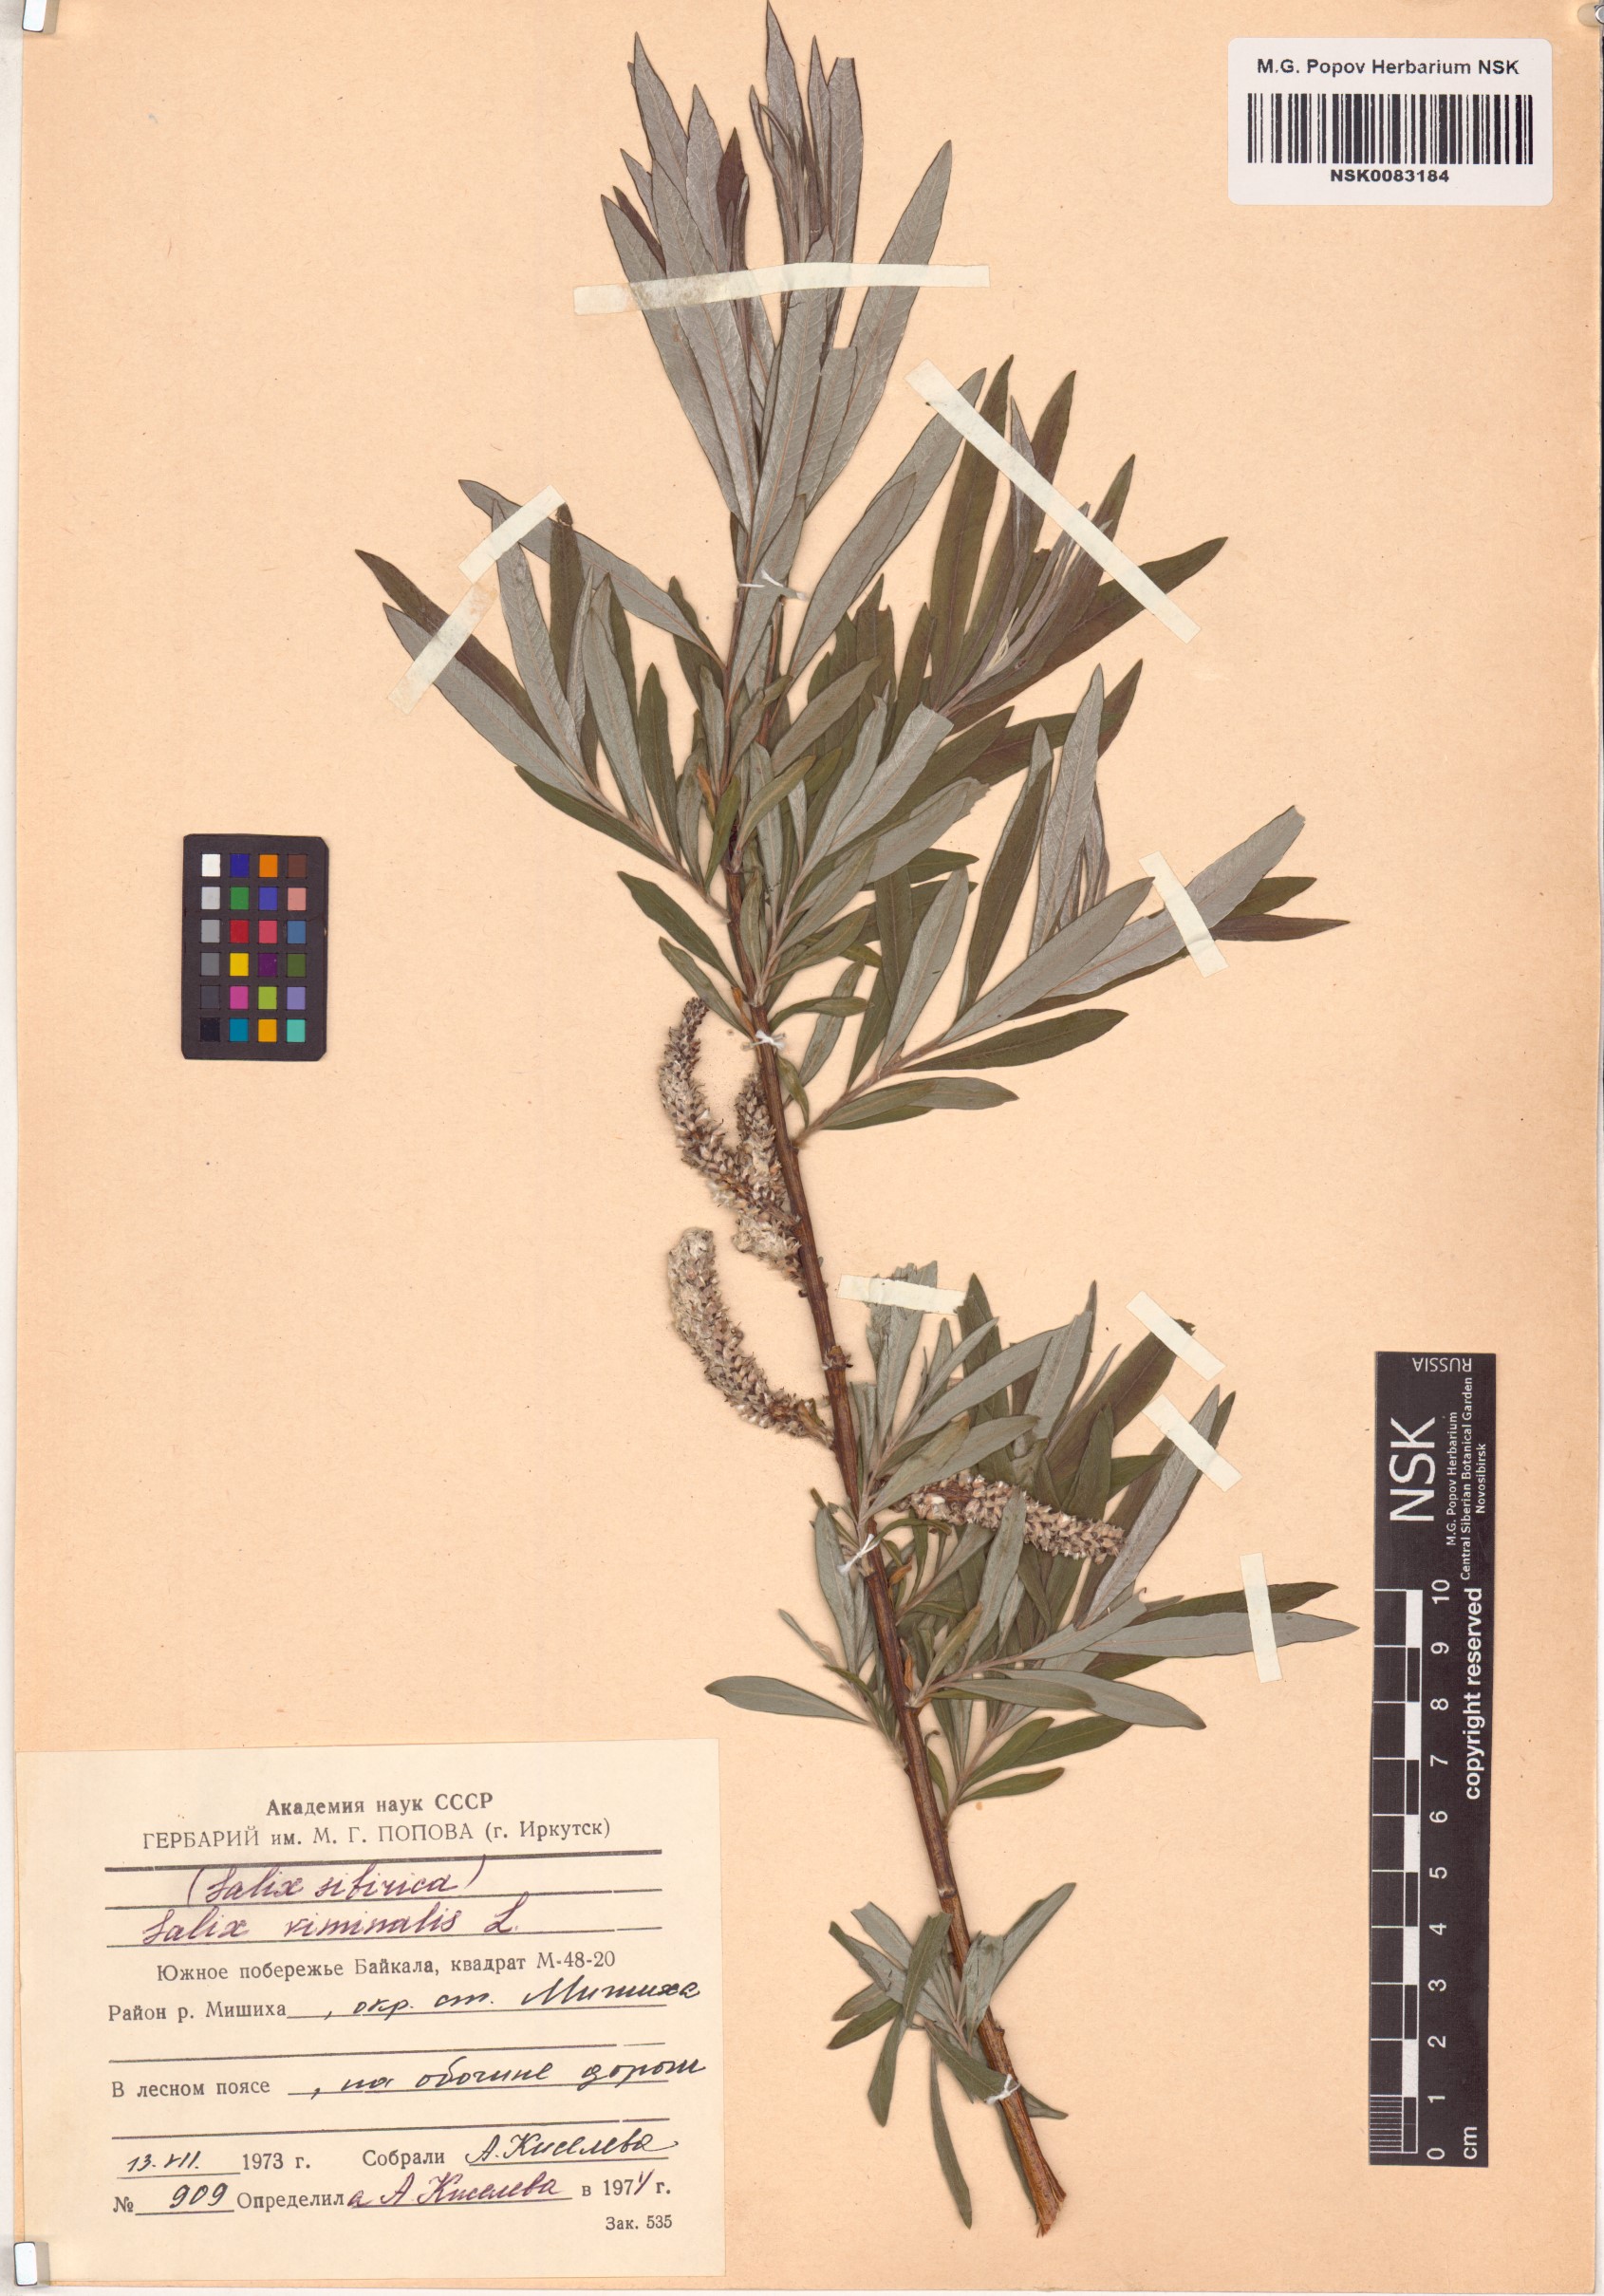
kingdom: Plantae
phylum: Tracheophyta
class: Magnoliopsida
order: Malpighiales
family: Salicaceae
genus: Salix
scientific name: Salix viminalis
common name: Osier
